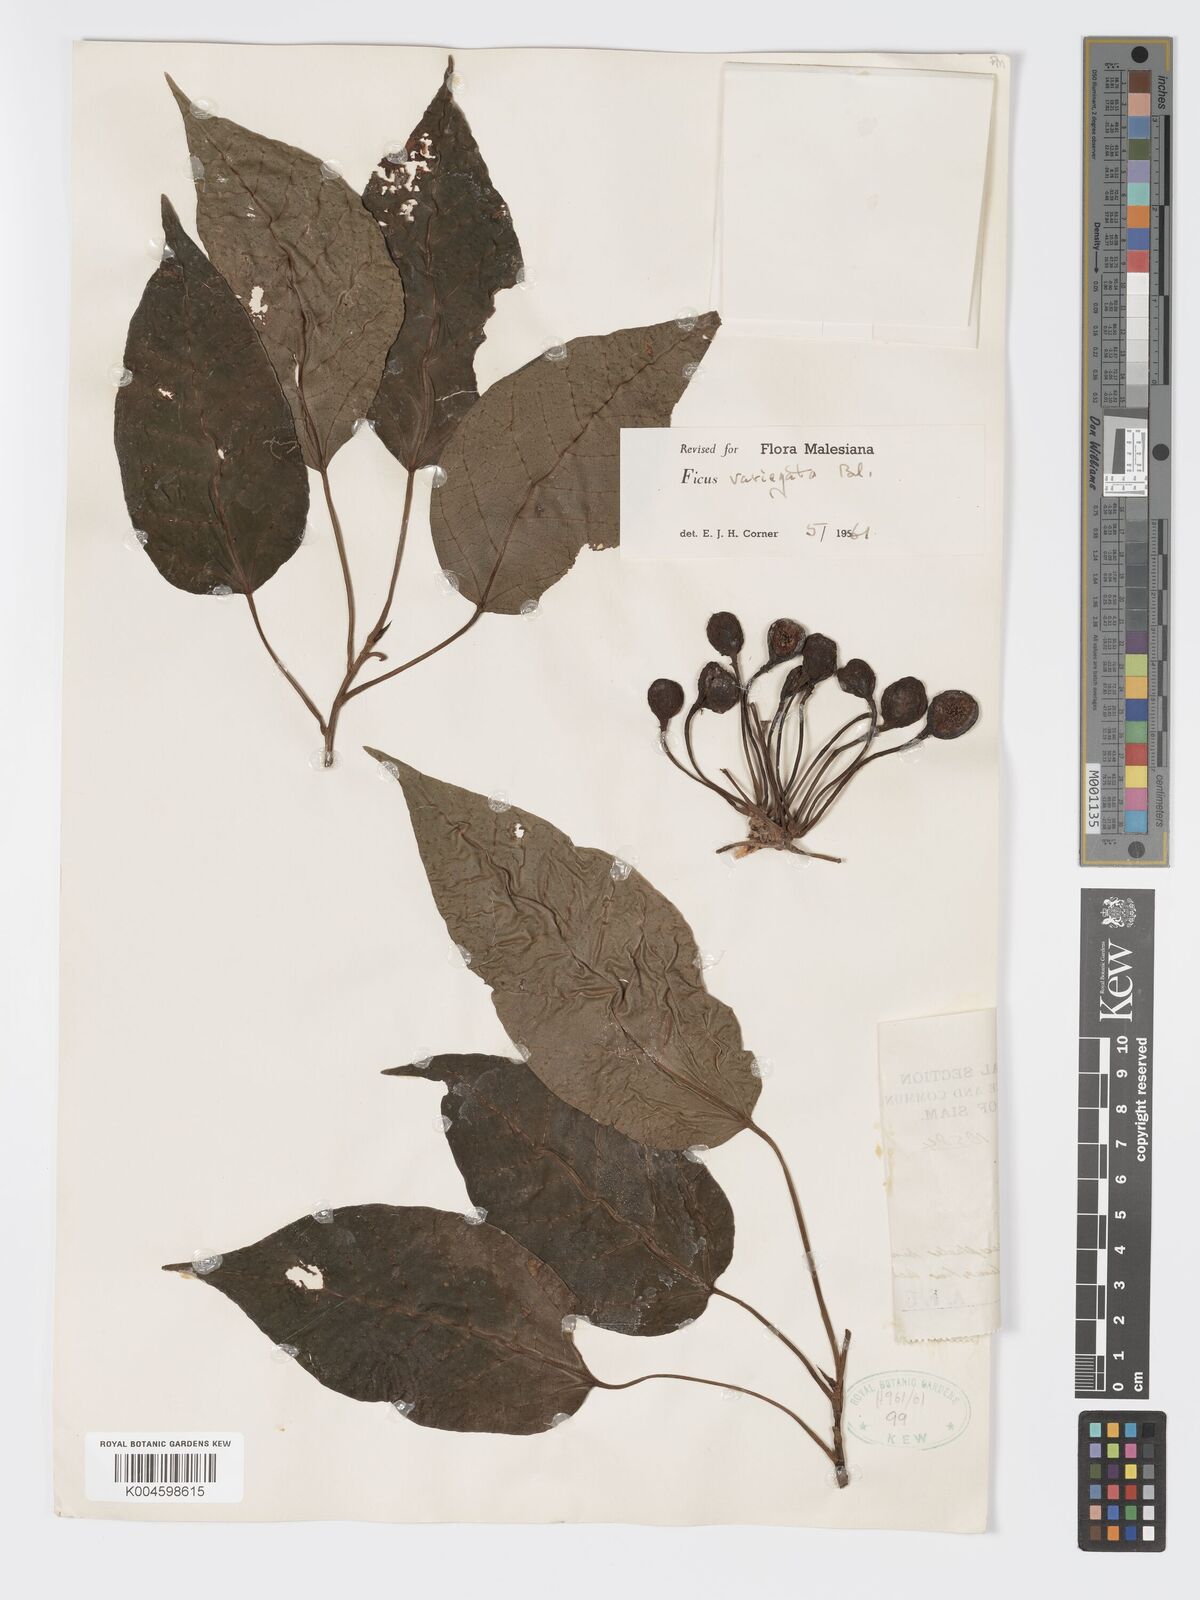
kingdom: Plantae
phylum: Tracheophyta
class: Magnoliopsida
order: Rosales
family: Moraceae
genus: Ficus
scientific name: Ficus variegata
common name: Variegated fig
